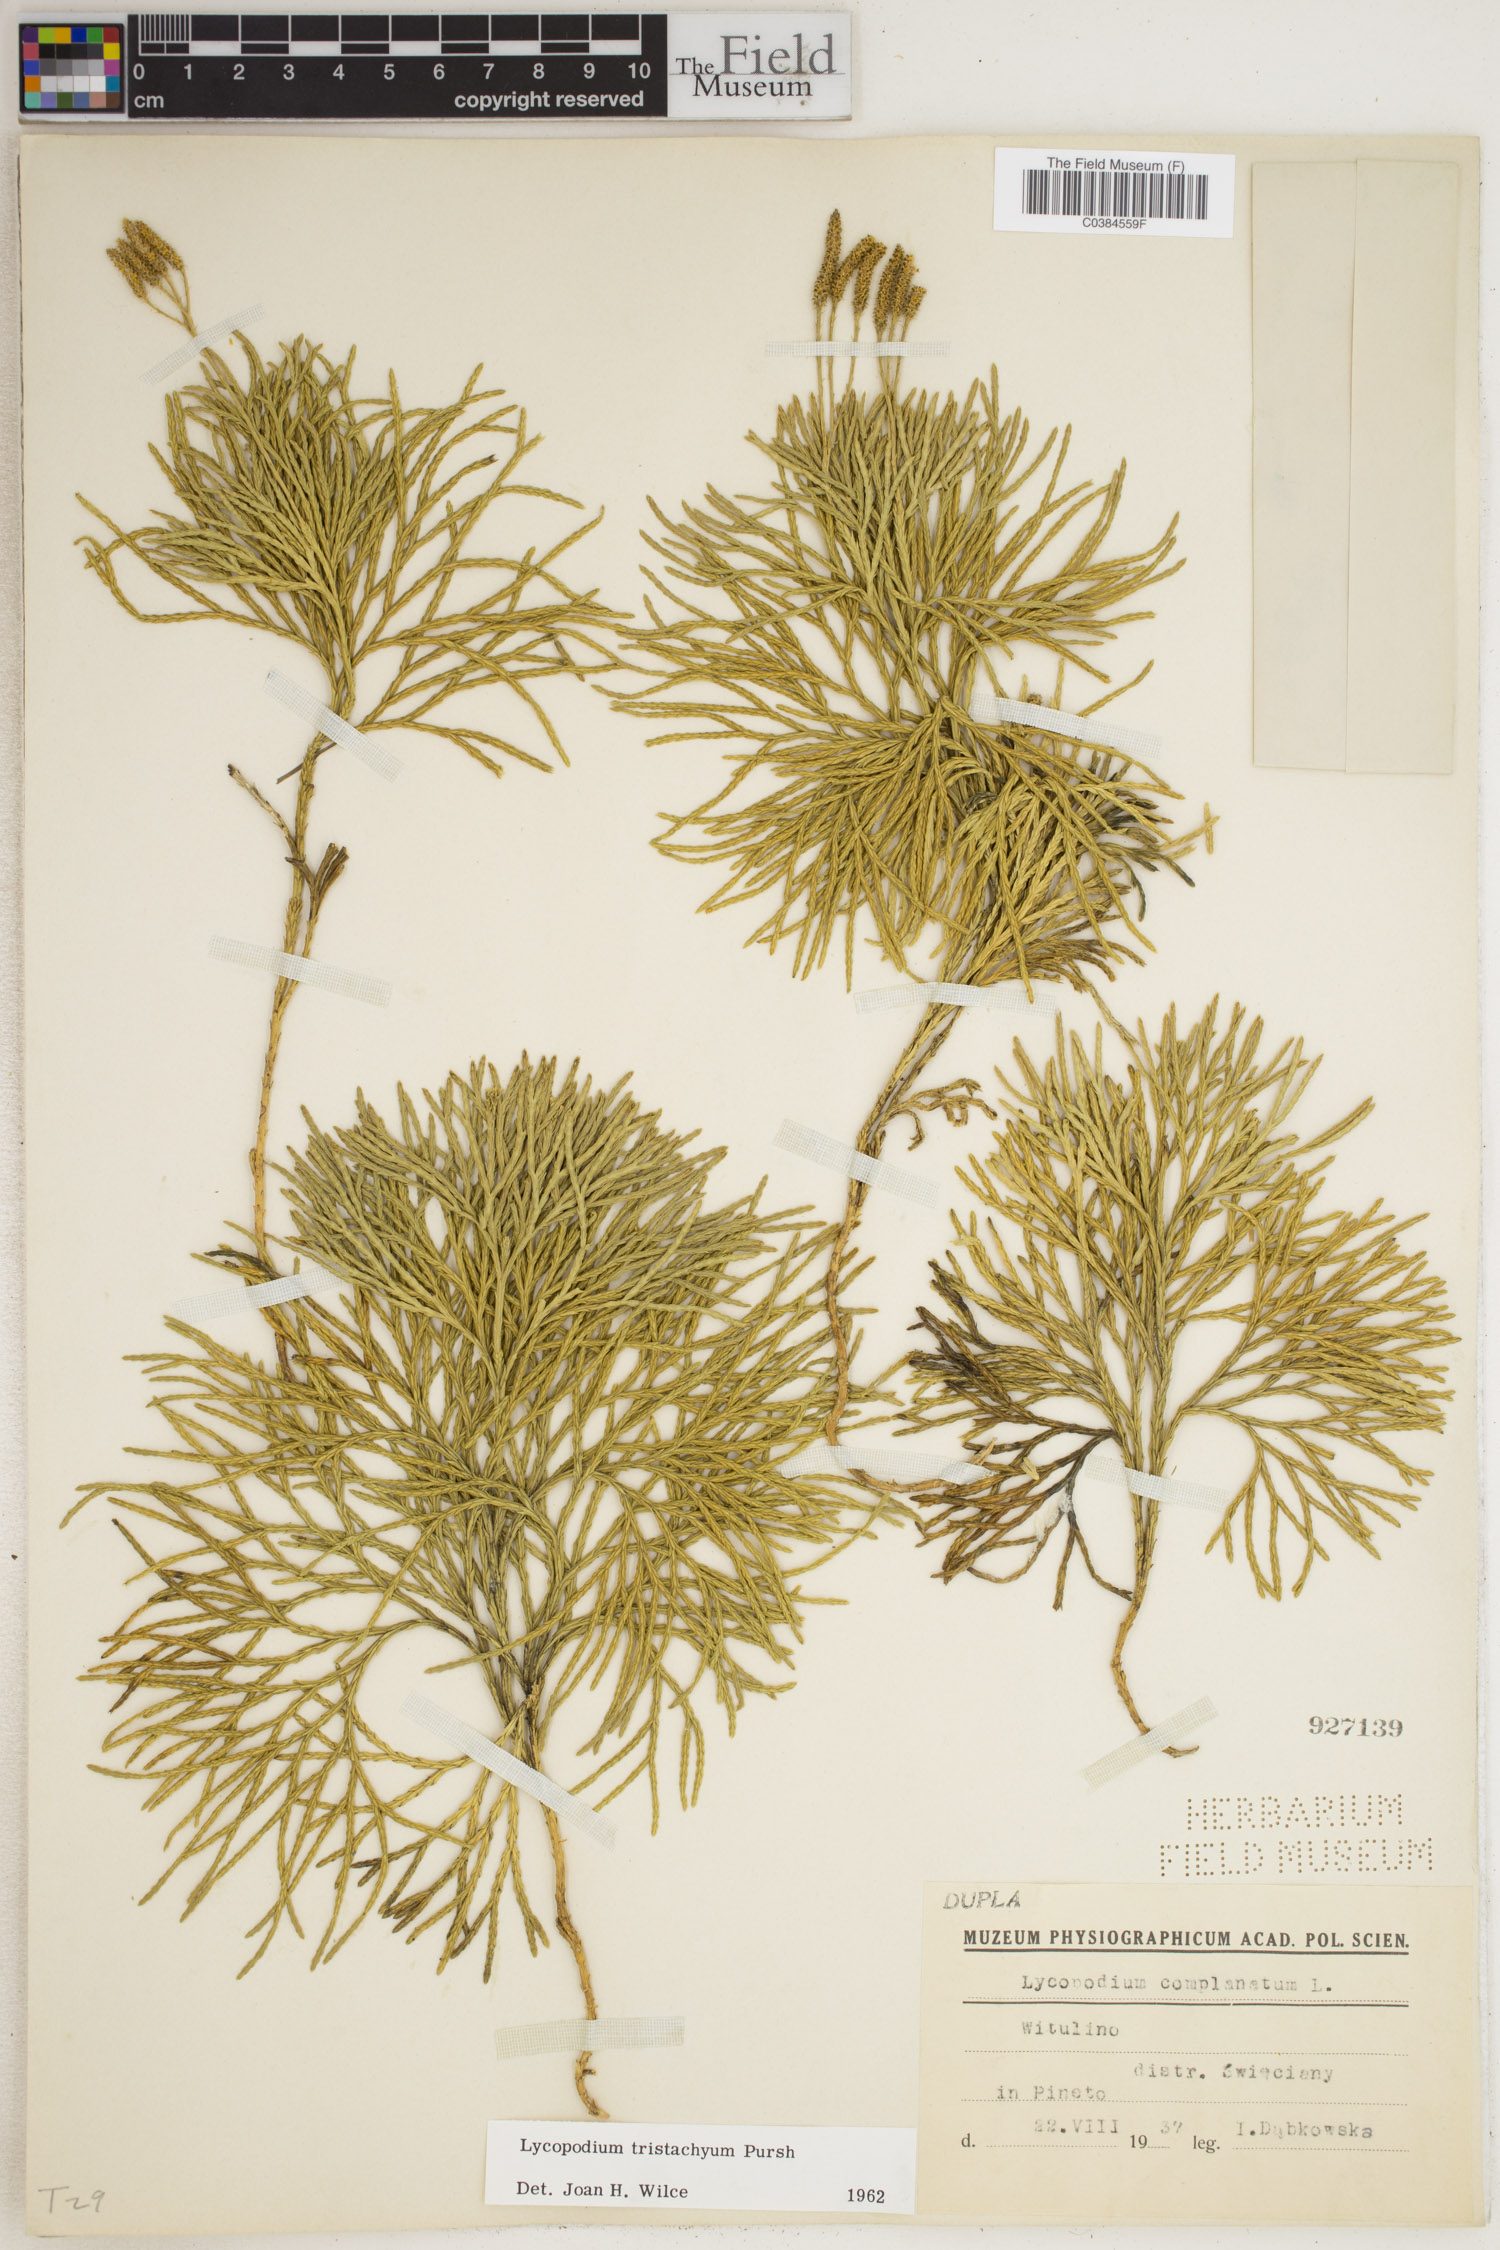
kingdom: Plantae
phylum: Tracheophyta
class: Lycopodiopsida
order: Lycopodiales
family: Lycopodiaceae
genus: Diphasiastrum
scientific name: Diphasiastrum tristachyum
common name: Blue ground-cedar
